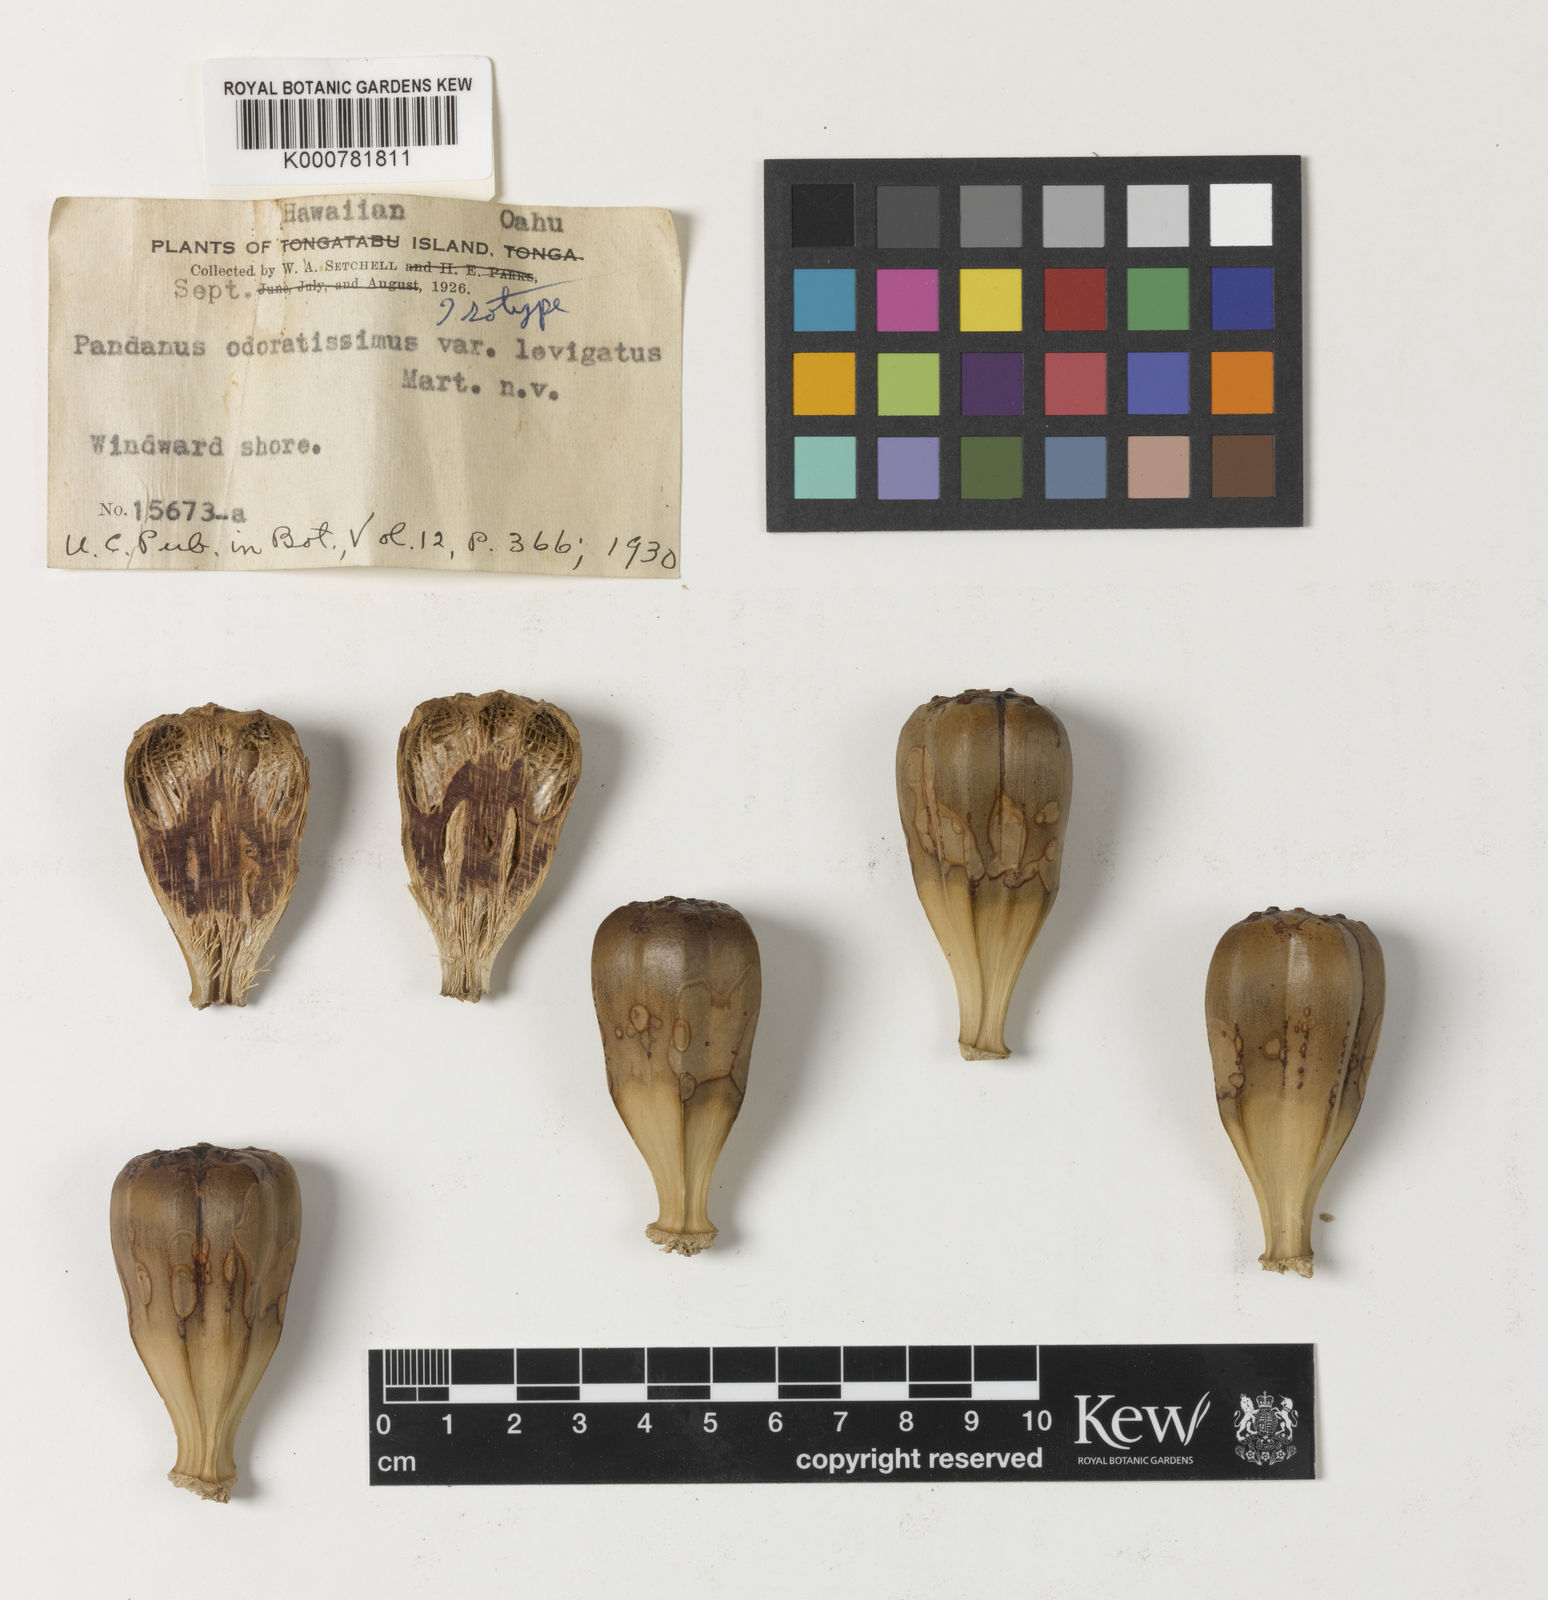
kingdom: Plantae
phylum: Tracheophyta
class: Liliopsida
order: Pandanales
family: Pandanaceae
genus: Pandanus
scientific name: Pandanus utilis
